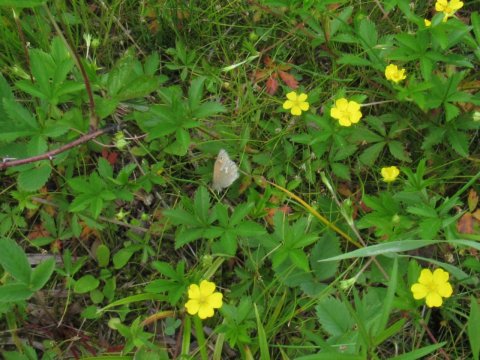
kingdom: Animalia
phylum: Arthropoda
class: Insecta
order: Lepidoptera
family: Nymphalidae
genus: Coenonympha
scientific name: Coenonympha tullia
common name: Large Heath
